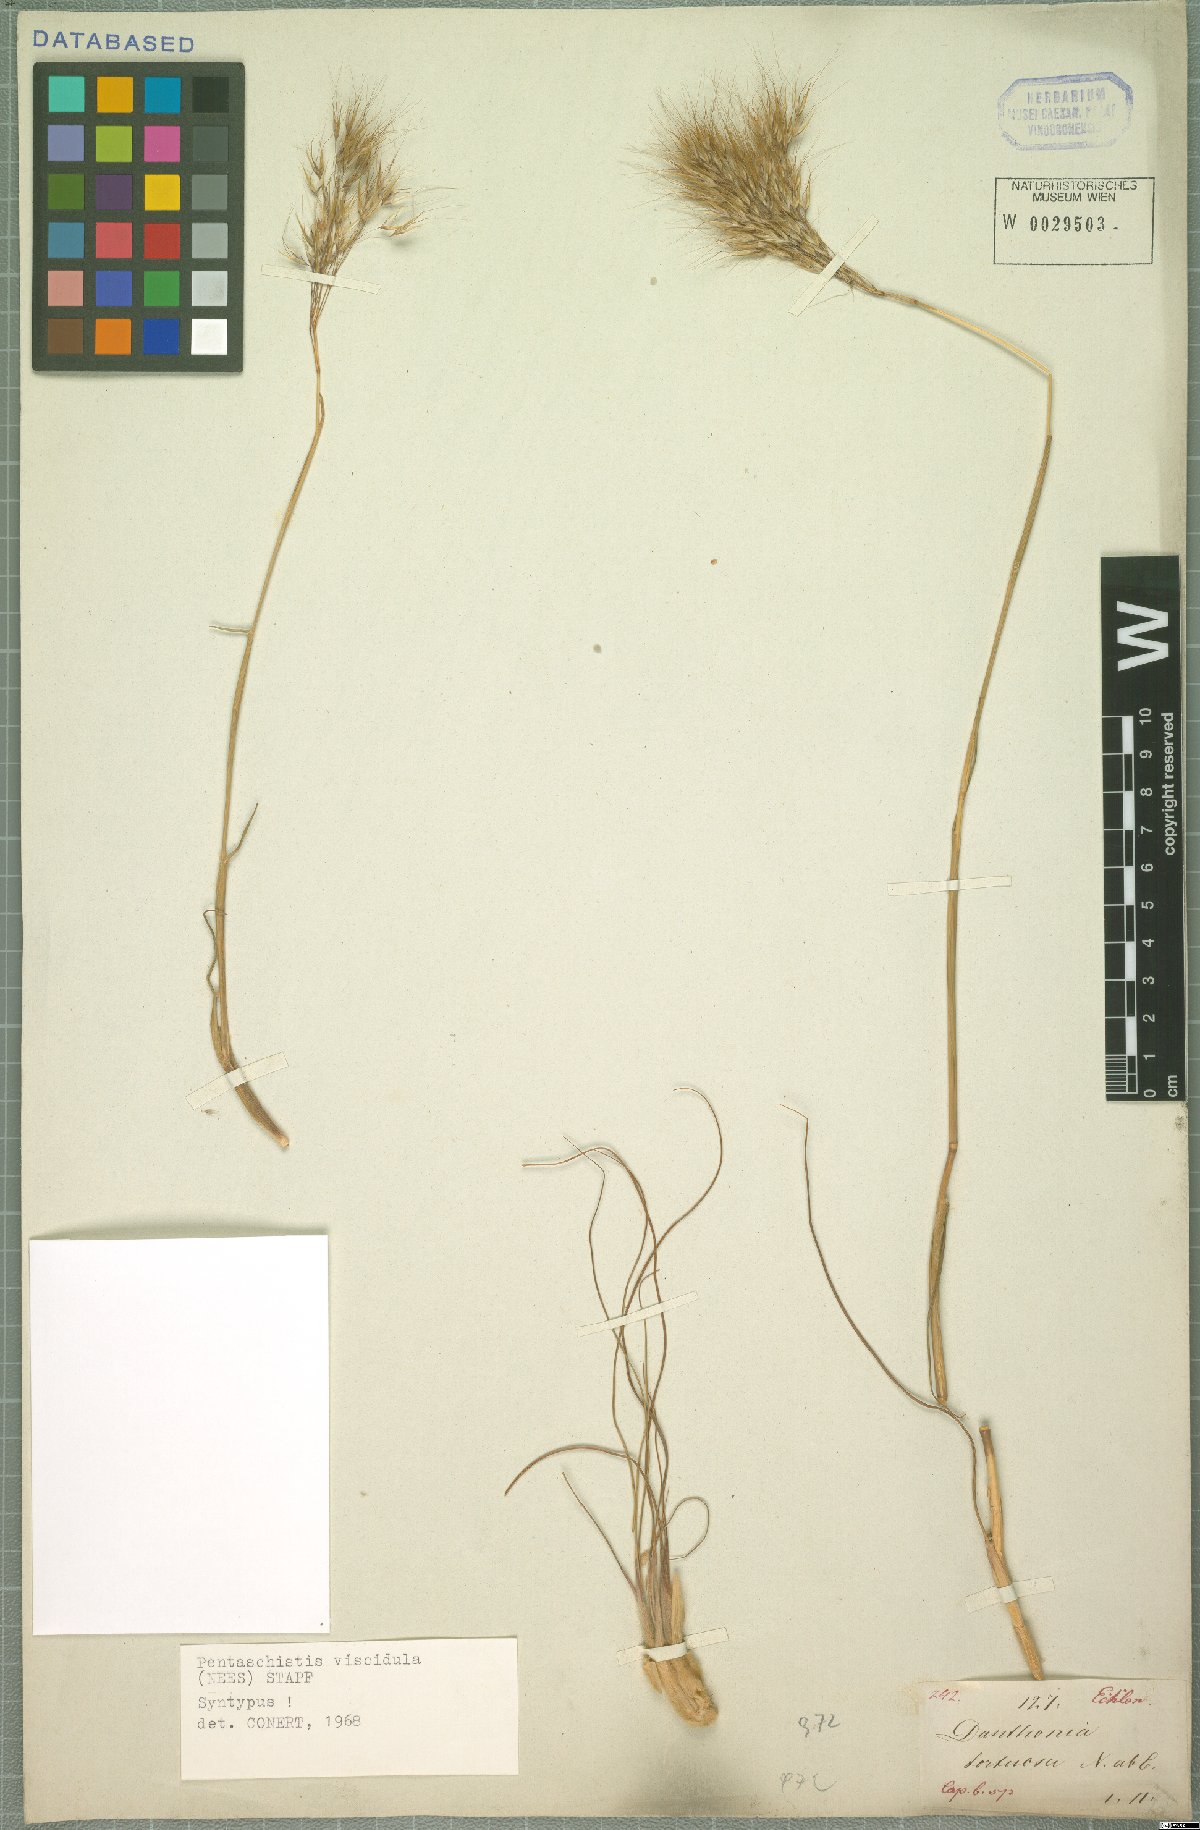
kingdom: Plantae
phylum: Tracheophyta
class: Liliopsida
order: Poales
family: Poaceae
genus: Pentameris
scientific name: Pentameris viscidula
